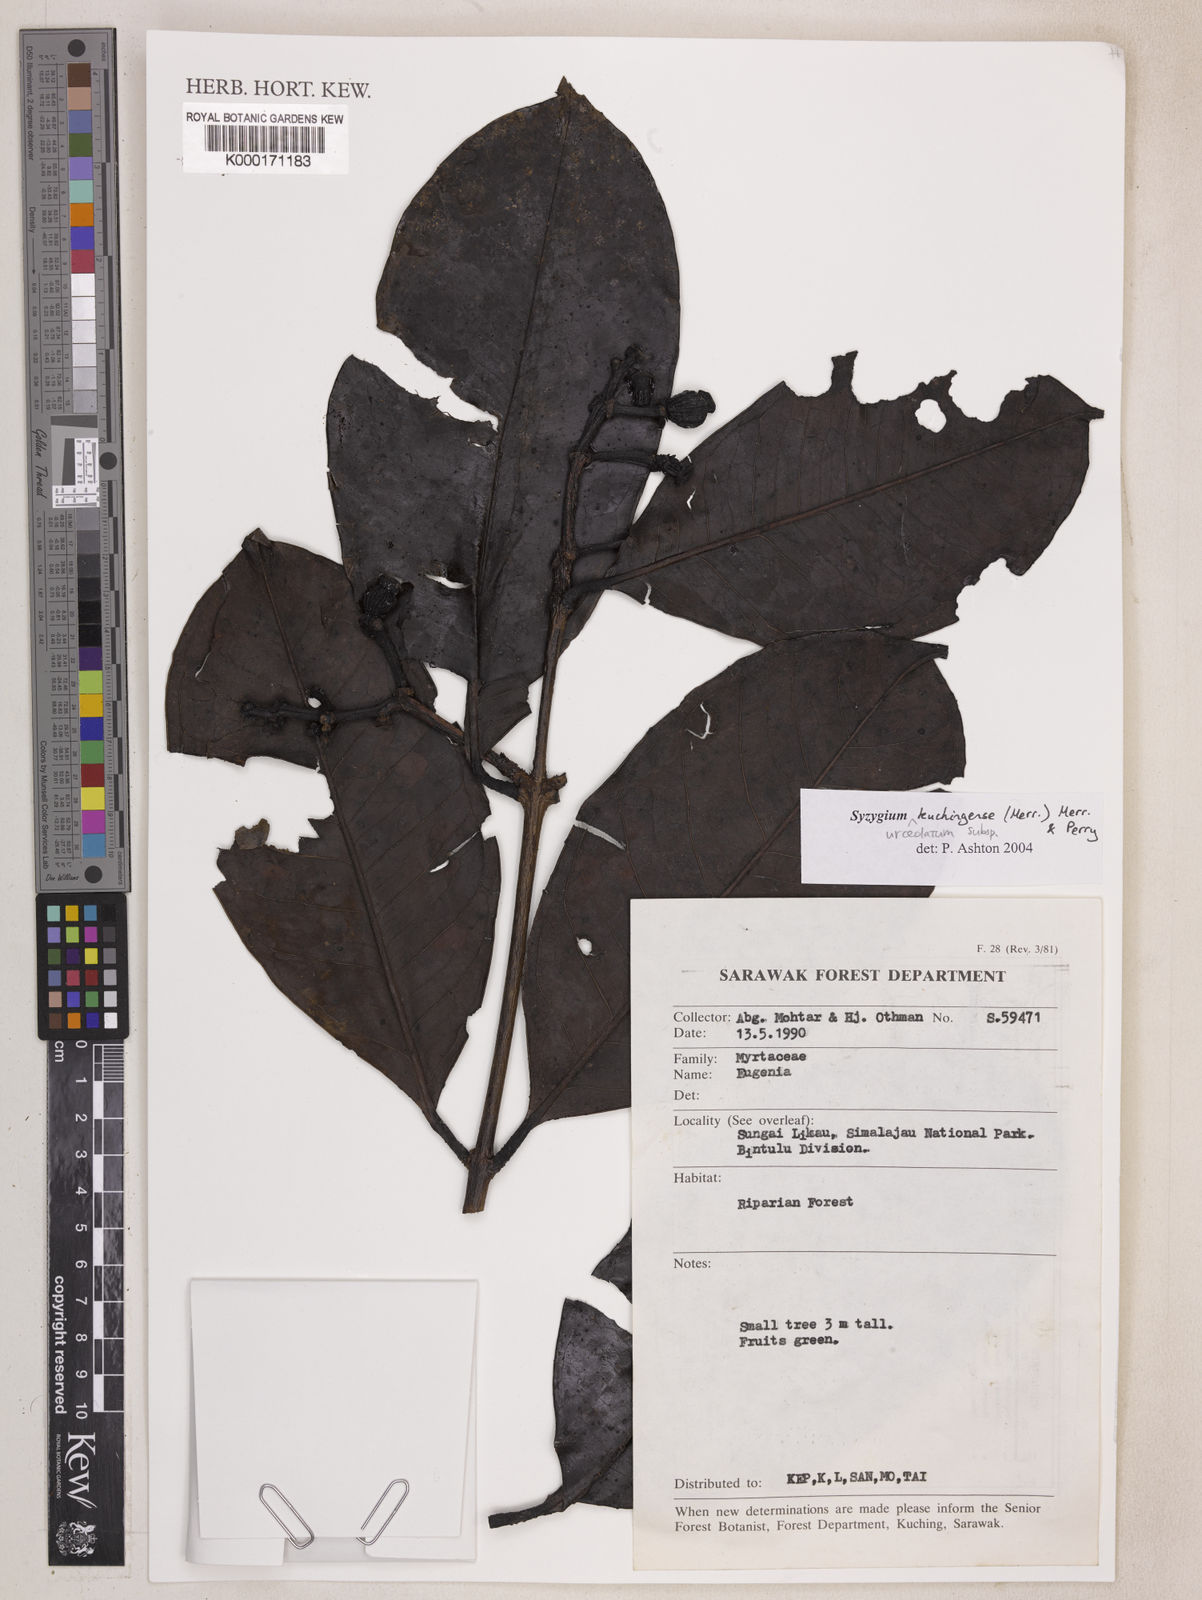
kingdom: Plantae
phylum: Tracheophyta
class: Magnoliopsida
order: Myrtales
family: Myrtaceae
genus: Syzygium
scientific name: Syzygium urceolatum
